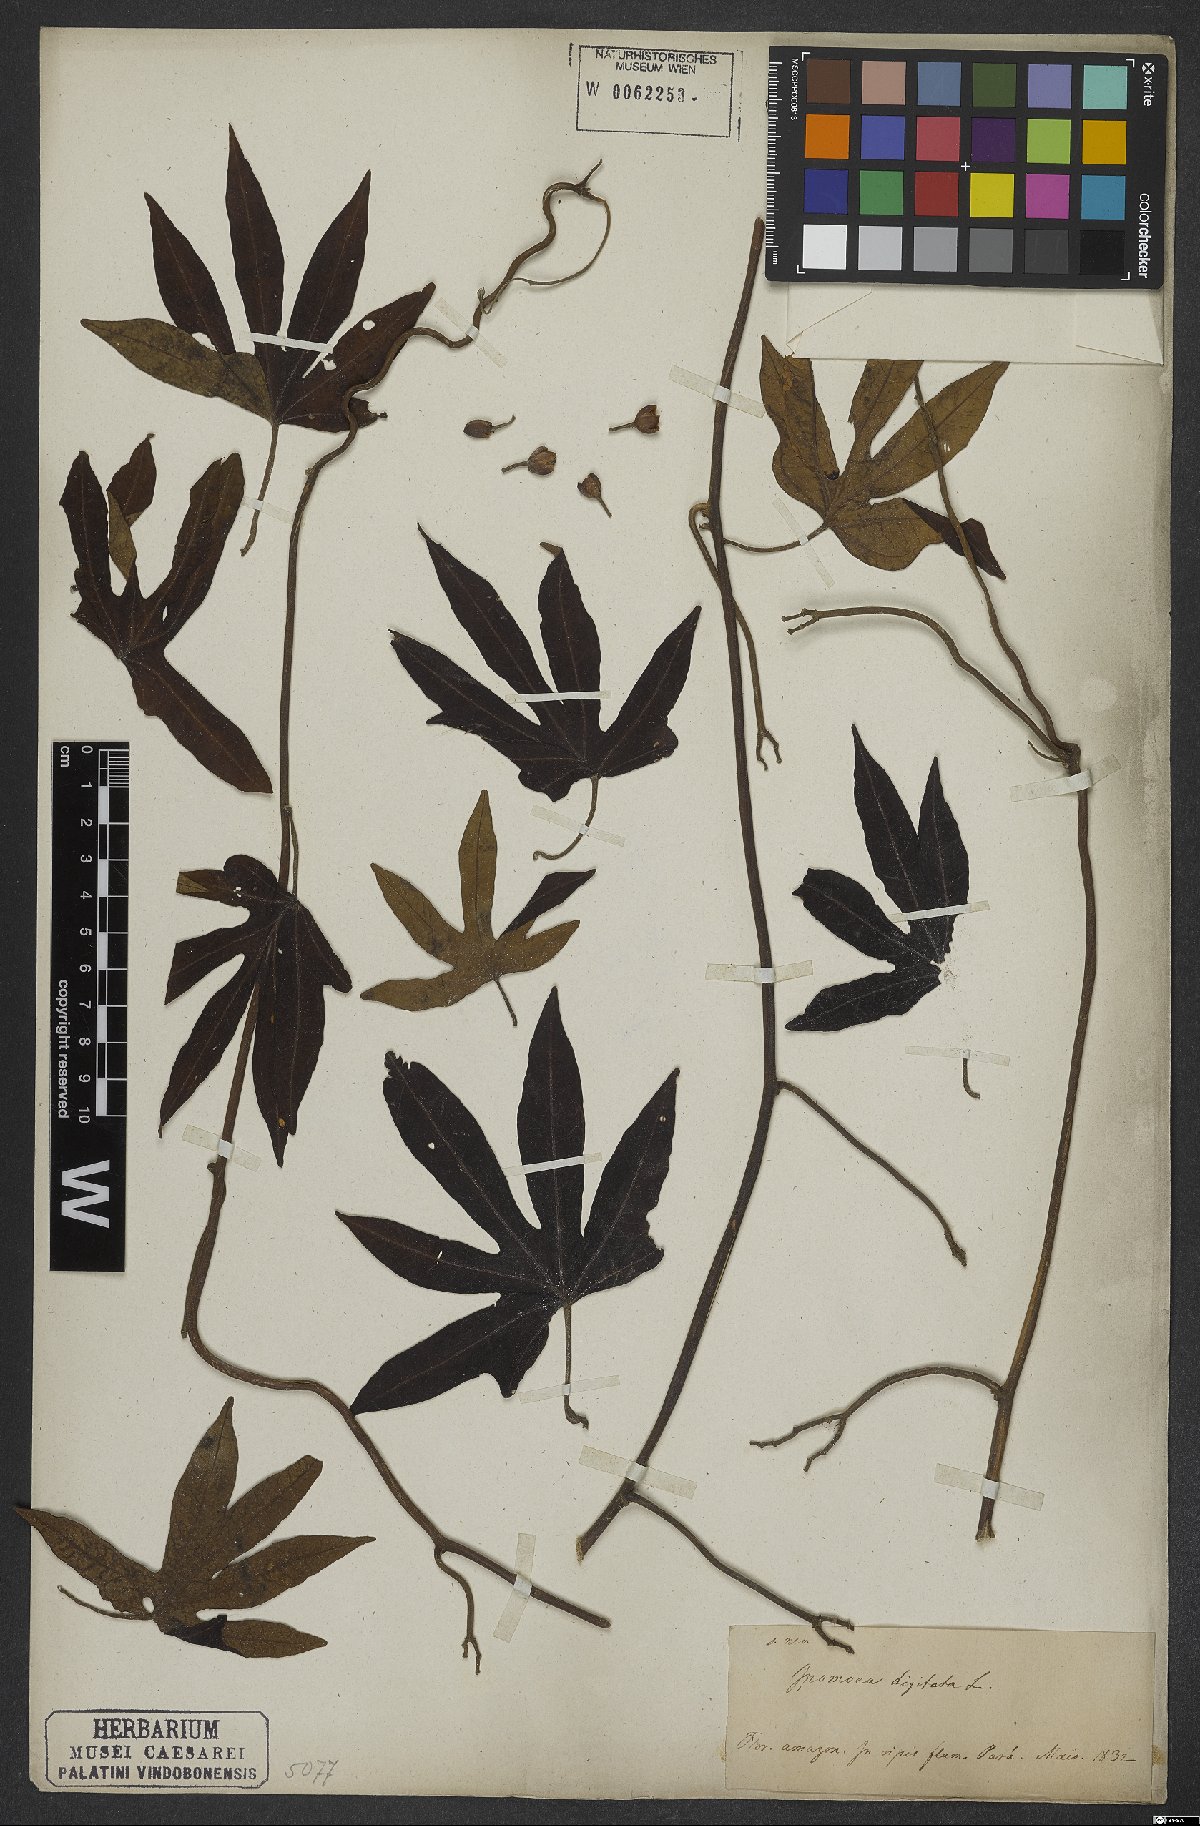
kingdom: Plantae
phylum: Tracheophyta
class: Magnoliopsida
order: Solanales
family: Convolvulaceae
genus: Ipomoea
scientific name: Ipomoea digitata
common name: Finger-leaf morning-glory
